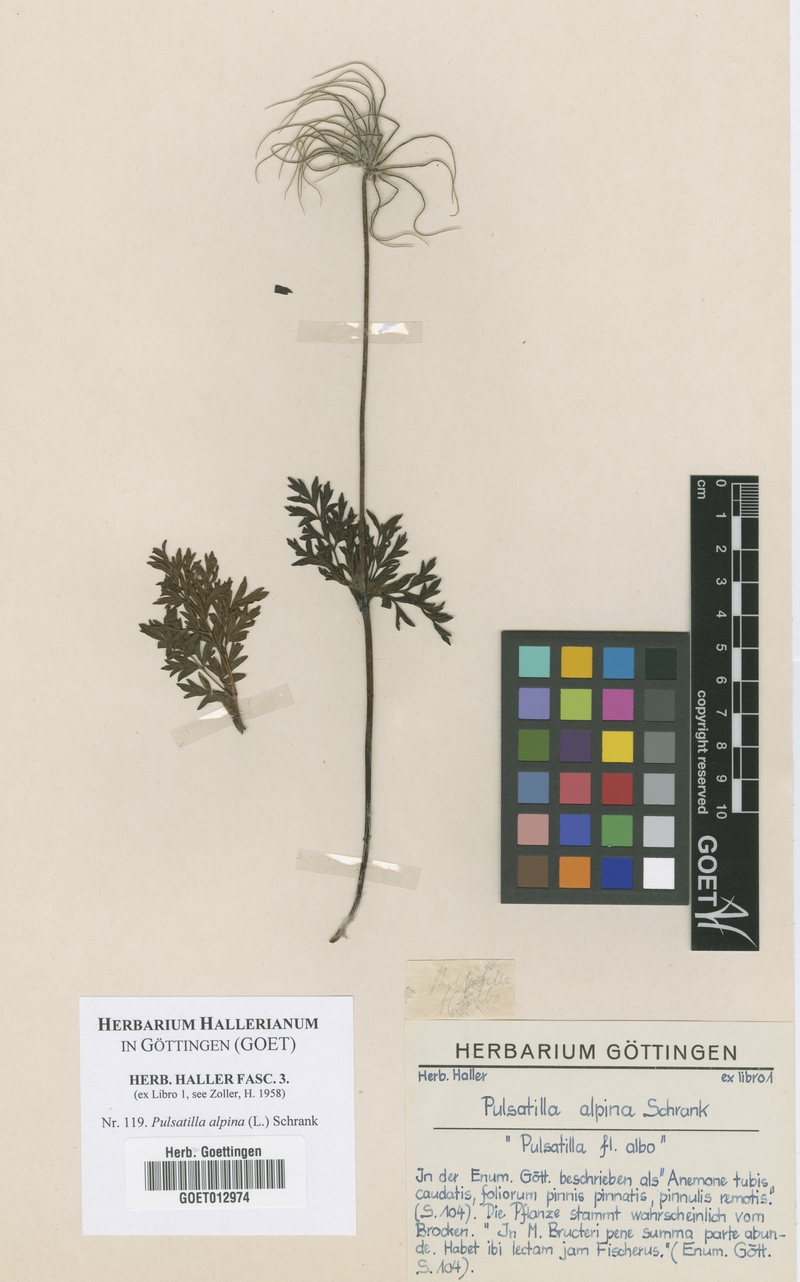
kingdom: Plantae
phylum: Tracheophyta
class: Magnoliopsida
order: Ranunculales
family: Ranunculaceae
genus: Pulsatilla
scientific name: Pulsatilla alpina
